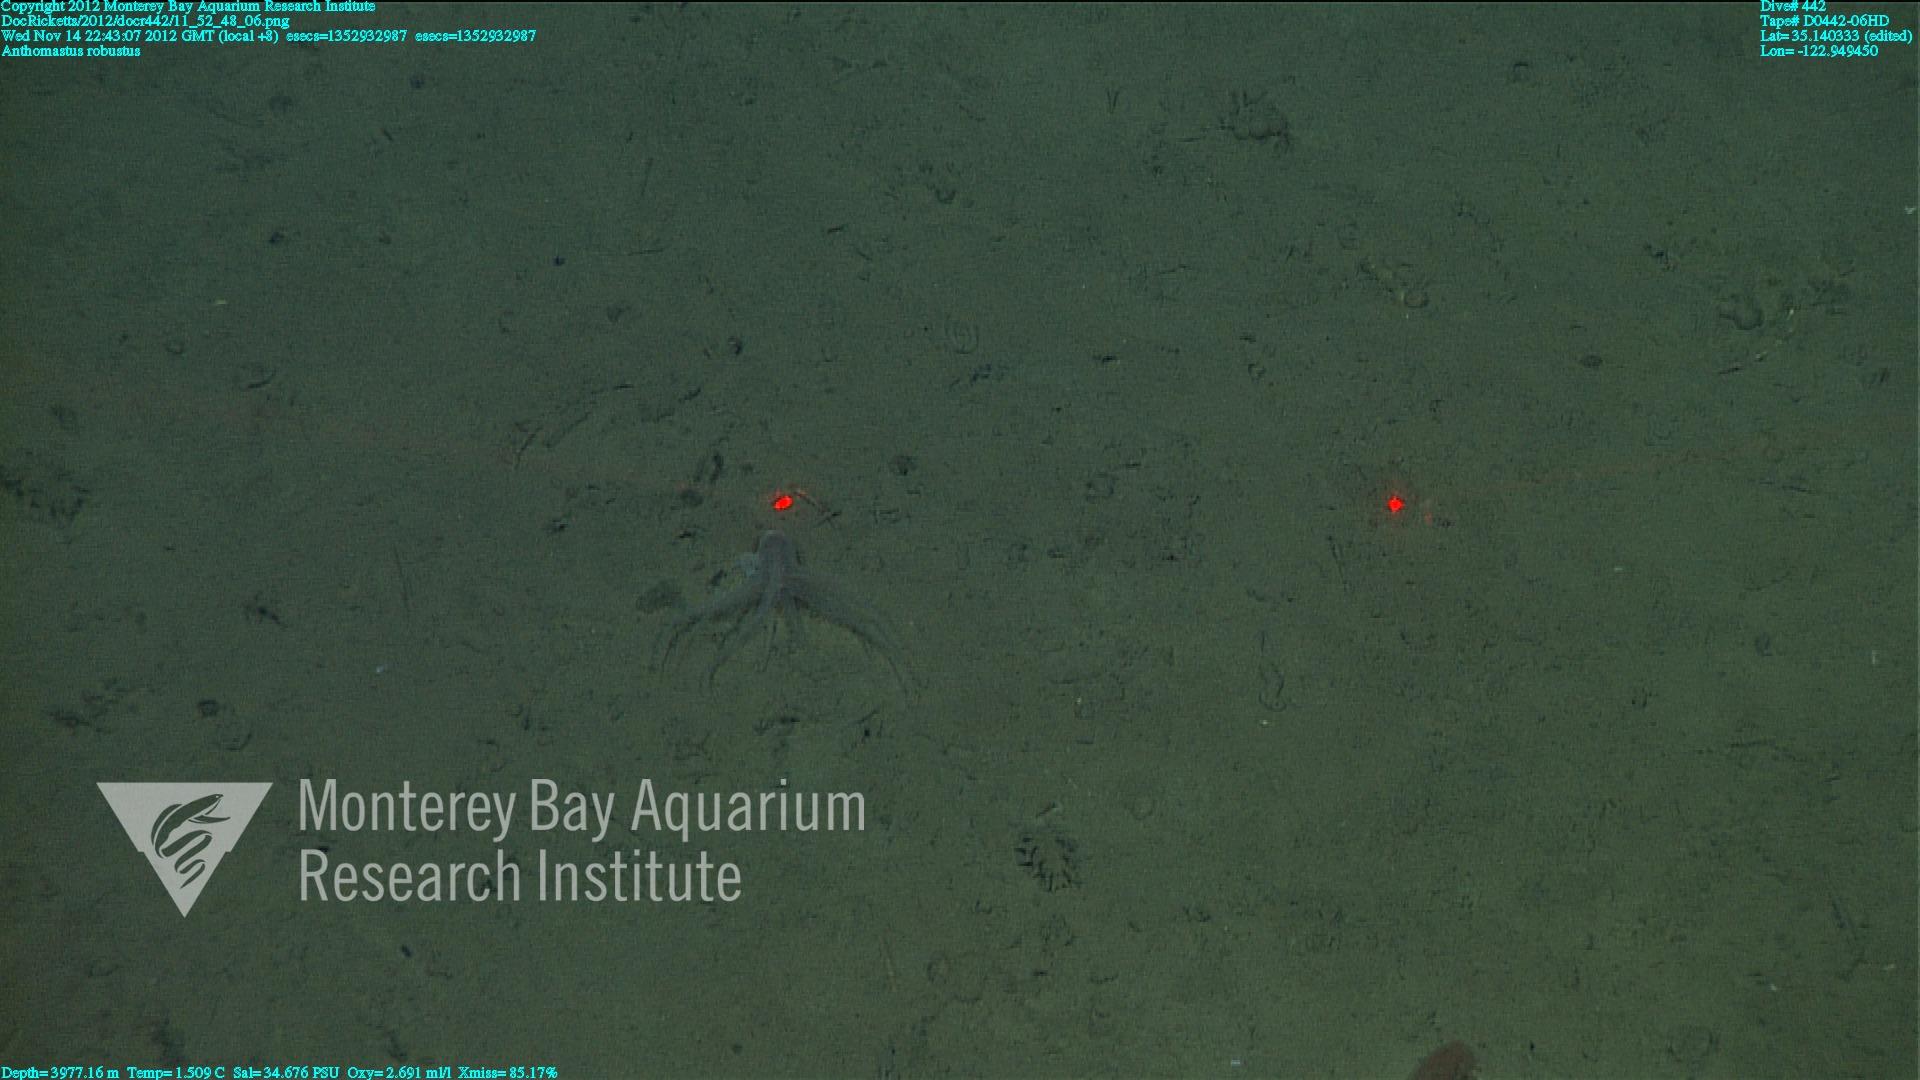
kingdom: Animalia
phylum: Cnidaria
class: Anthozoa
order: Scleralcyonacea
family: Coralliidae
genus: Bathyalcyon
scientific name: Bathyalcyon robustum
